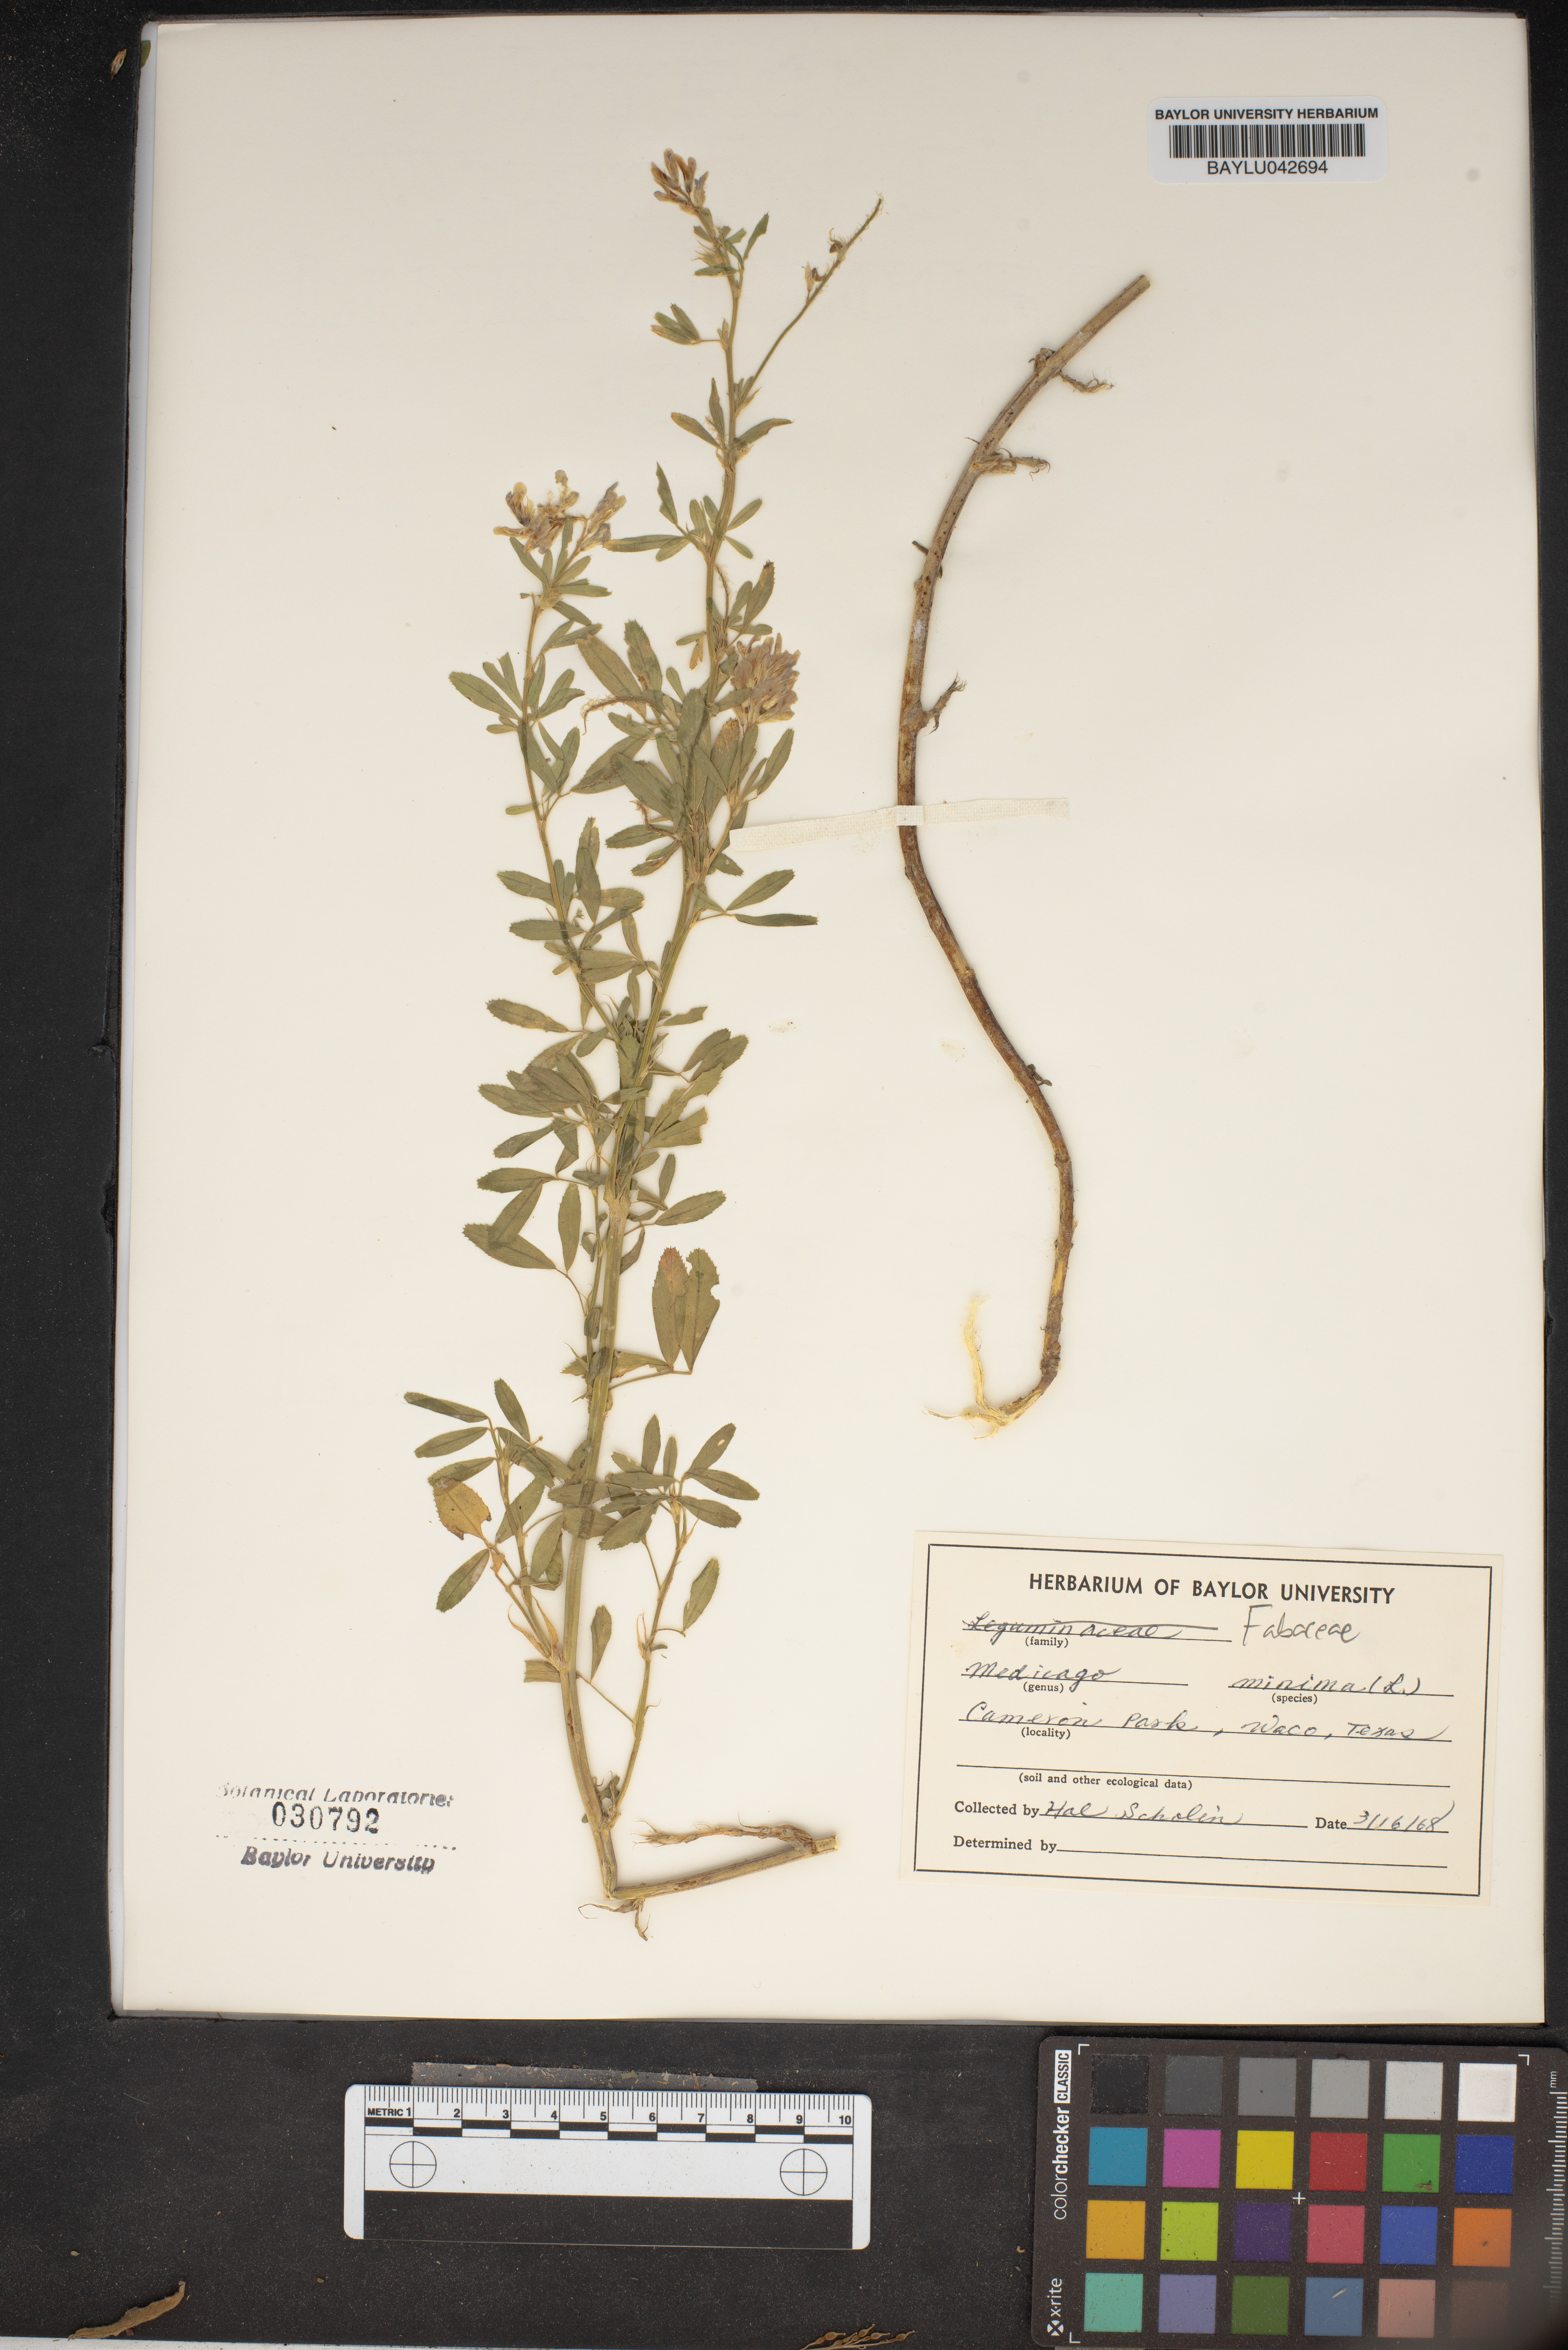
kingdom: Plantae
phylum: Tracheophyta
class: Magnoliopsida
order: Fabales
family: Fabaceae
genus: Medicago
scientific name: Medicago minima
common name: Little bur-clover
